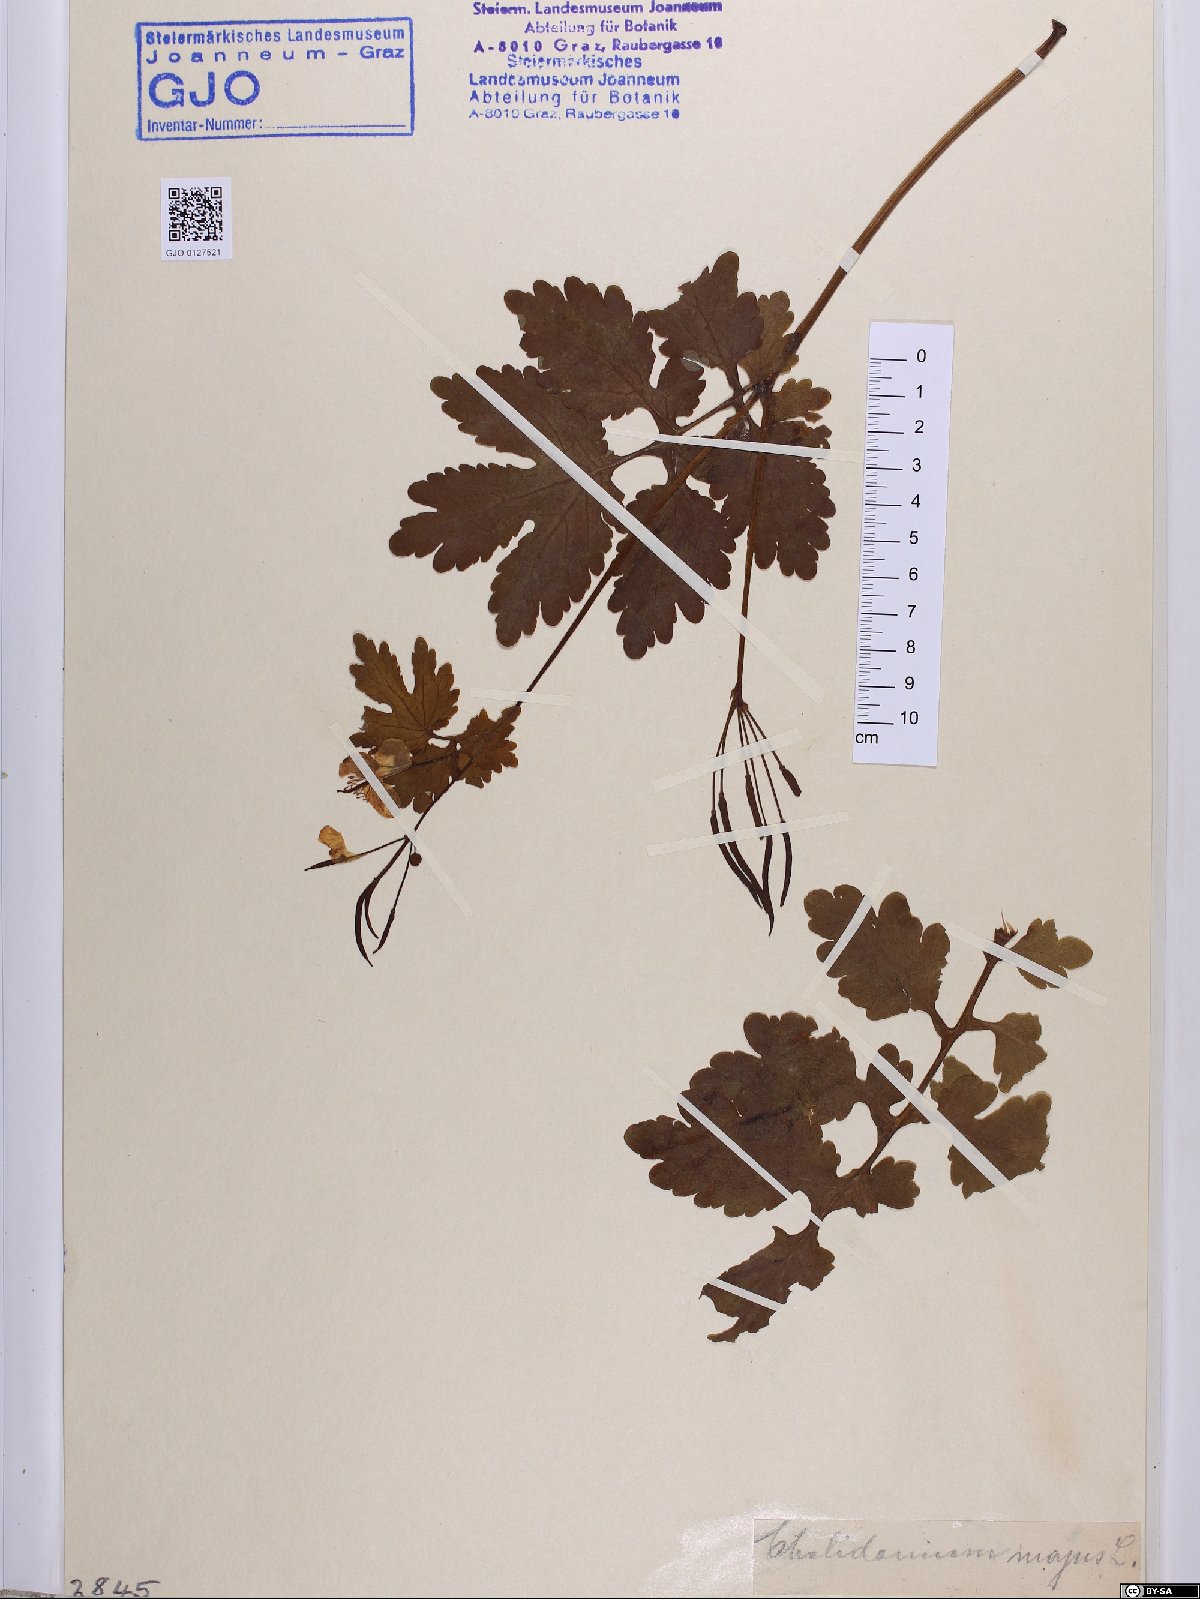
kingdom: Plantae
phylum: Tracheophyta
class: Magnoliopsida
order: Ranunculales
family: Papaveraceae
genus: Chelidonium
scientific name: Chelidonium majus
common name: Greater celandine
